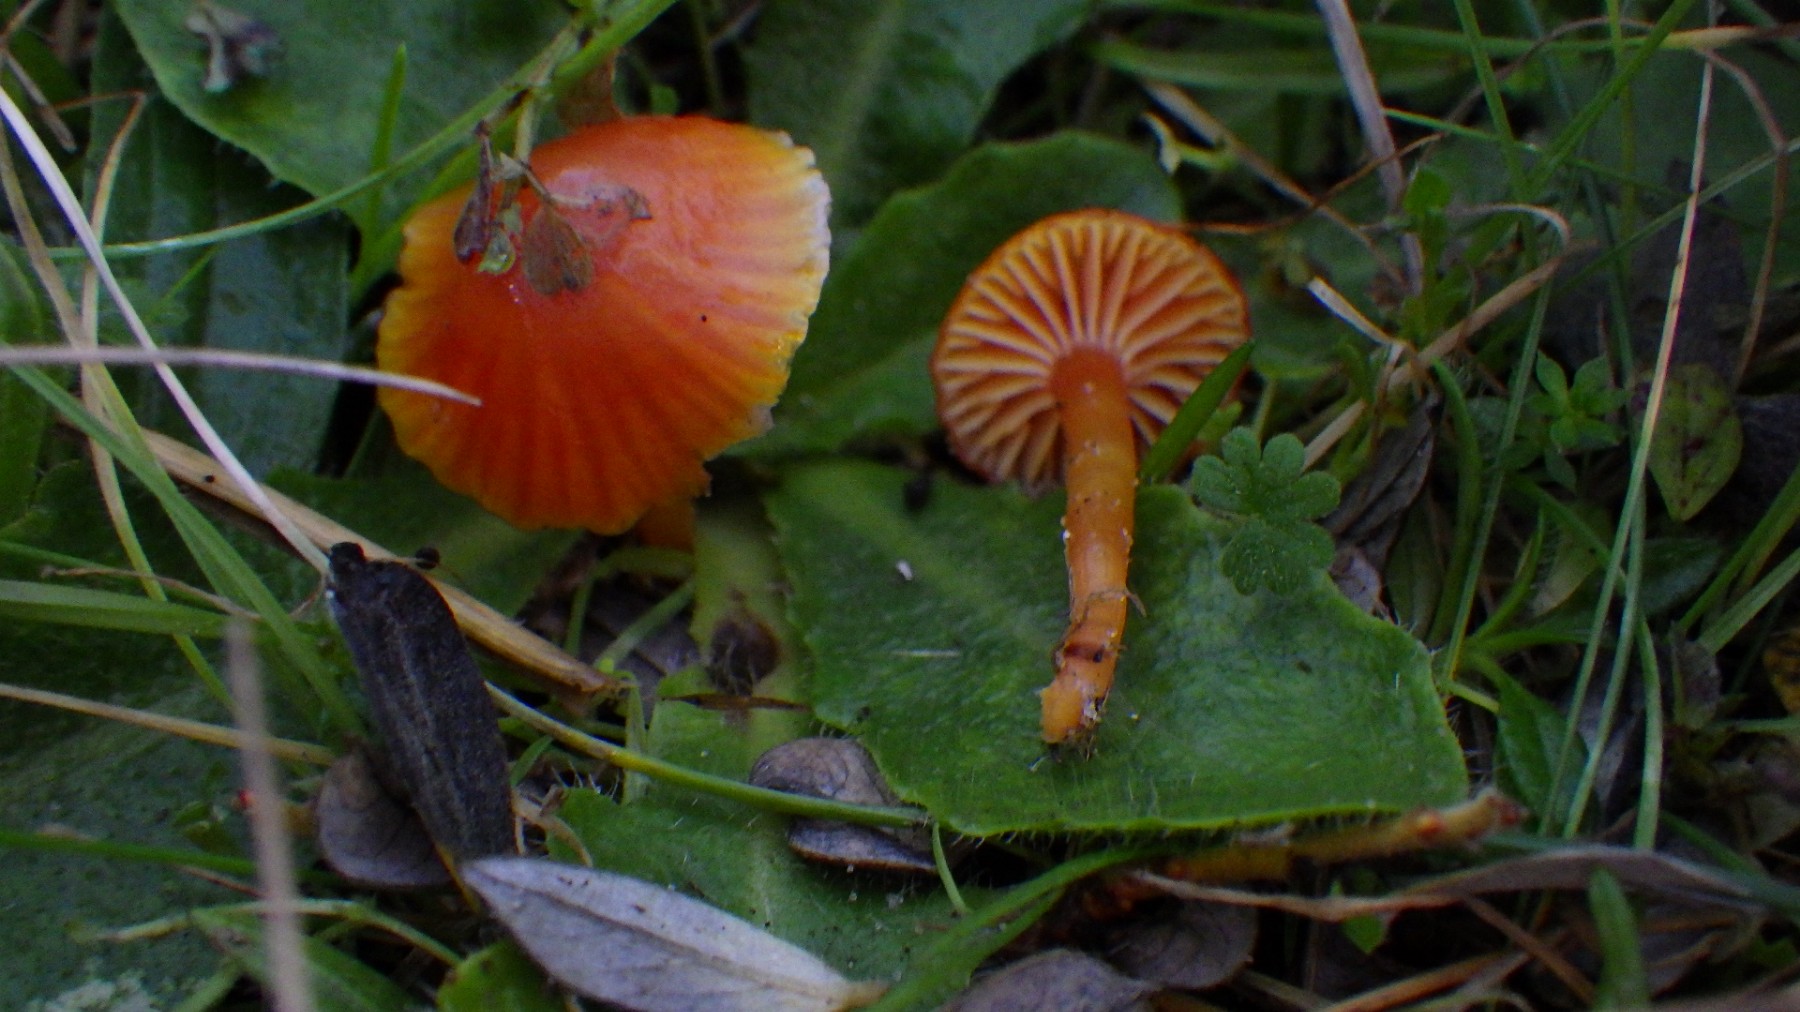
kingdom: Fungi
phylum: Basidiomycota
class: Agaricomycetes
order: Agaricales
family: Hygrophoraceae
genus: Hygrocybe
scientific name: Hygrocybe insipida
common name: liden vokshat
